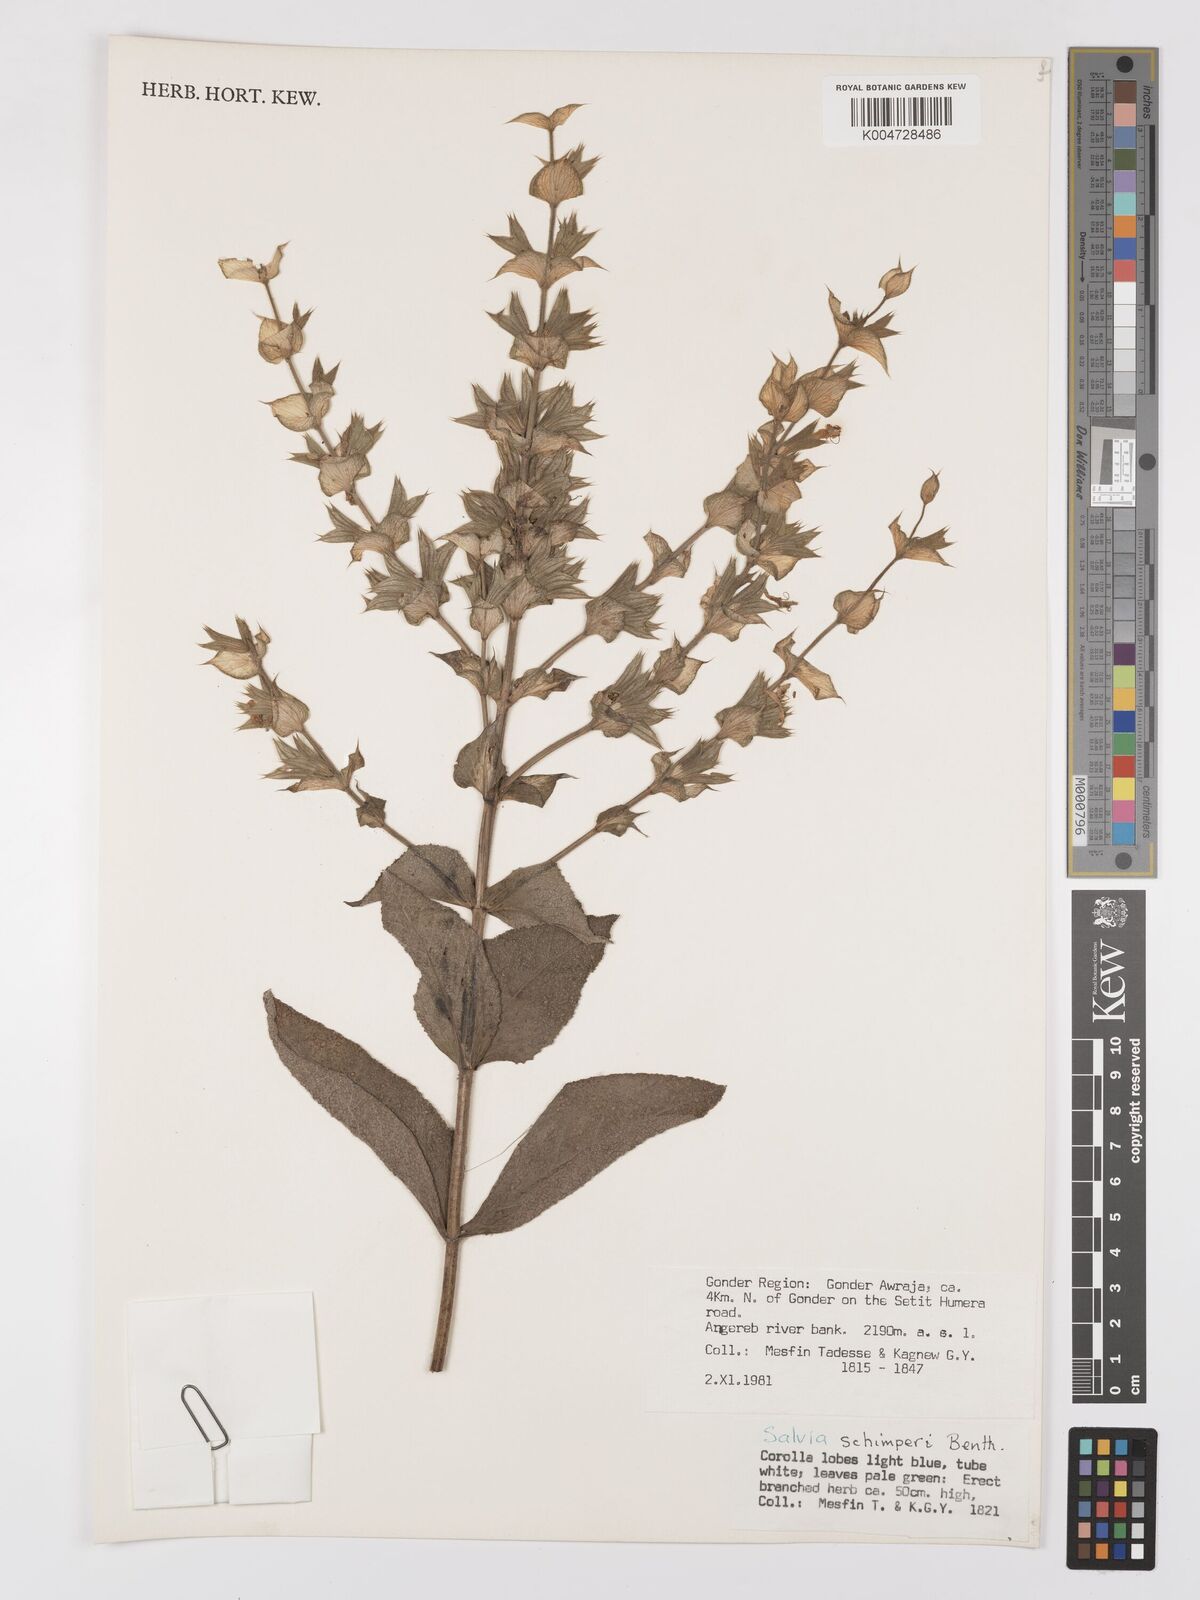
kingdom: Plantae
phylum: Tracheophyta
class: Magnoliopsida
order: Lamiales
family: Lamiaceae
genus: Salvia
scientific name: Salvia schimperi
